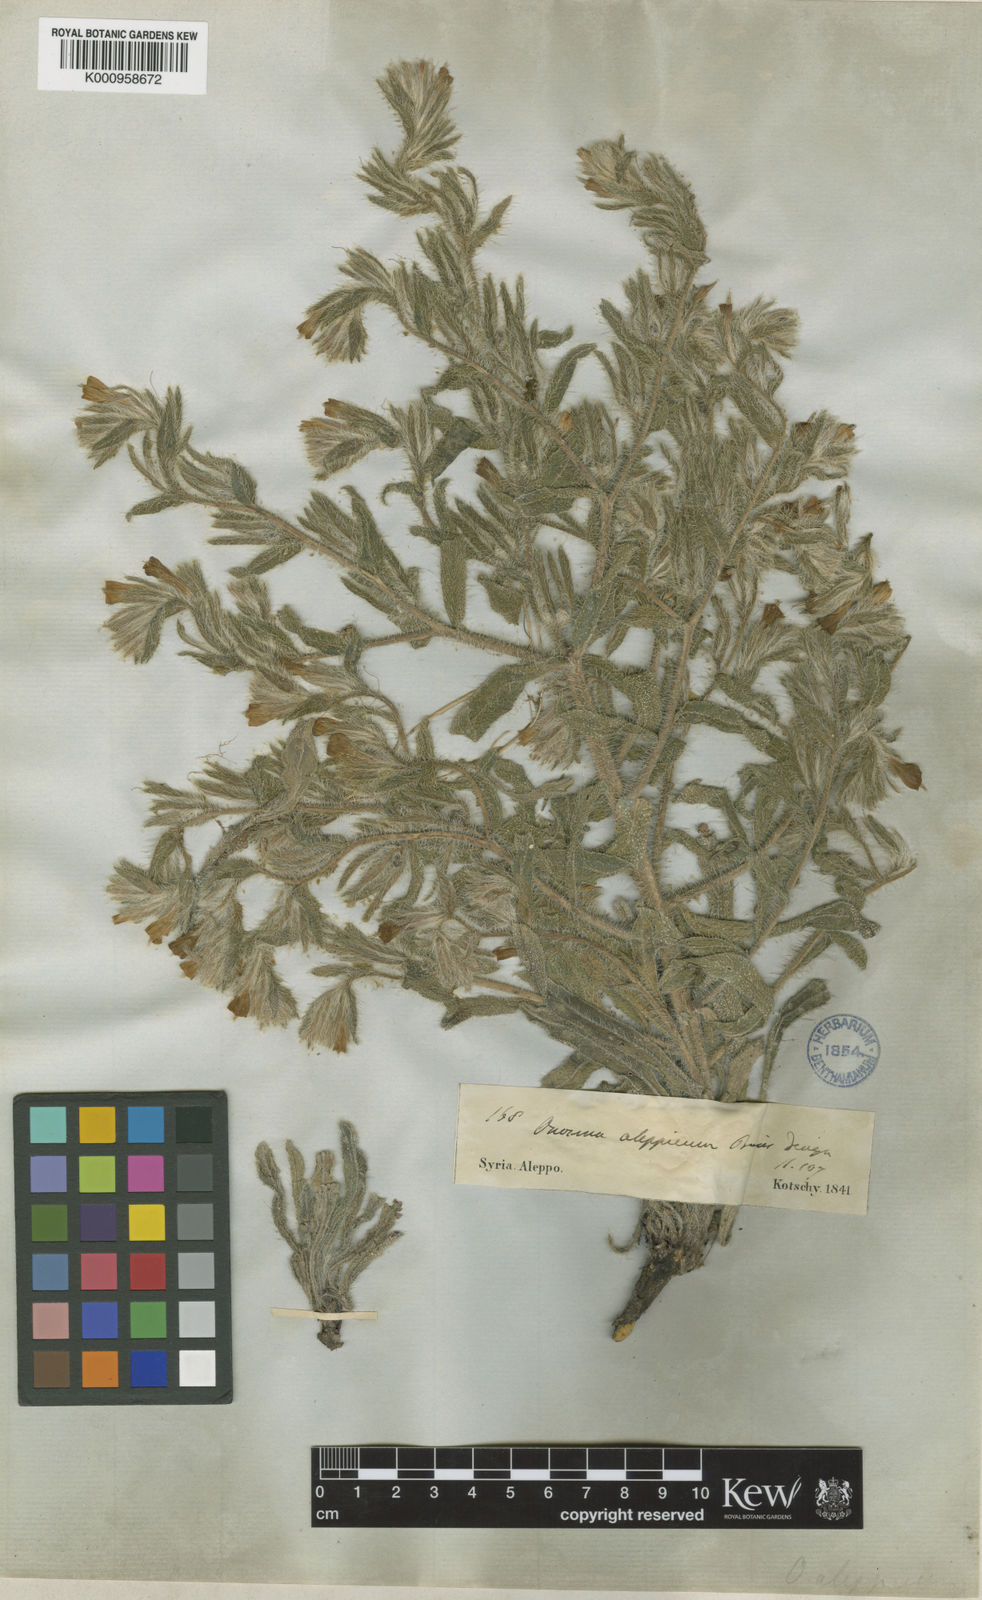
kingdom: Plantae
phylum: Tracheophyta
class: Magnoliopsida
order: Boraginales
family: Boraginaceae
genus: Onosma
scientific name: Onosma echinata
